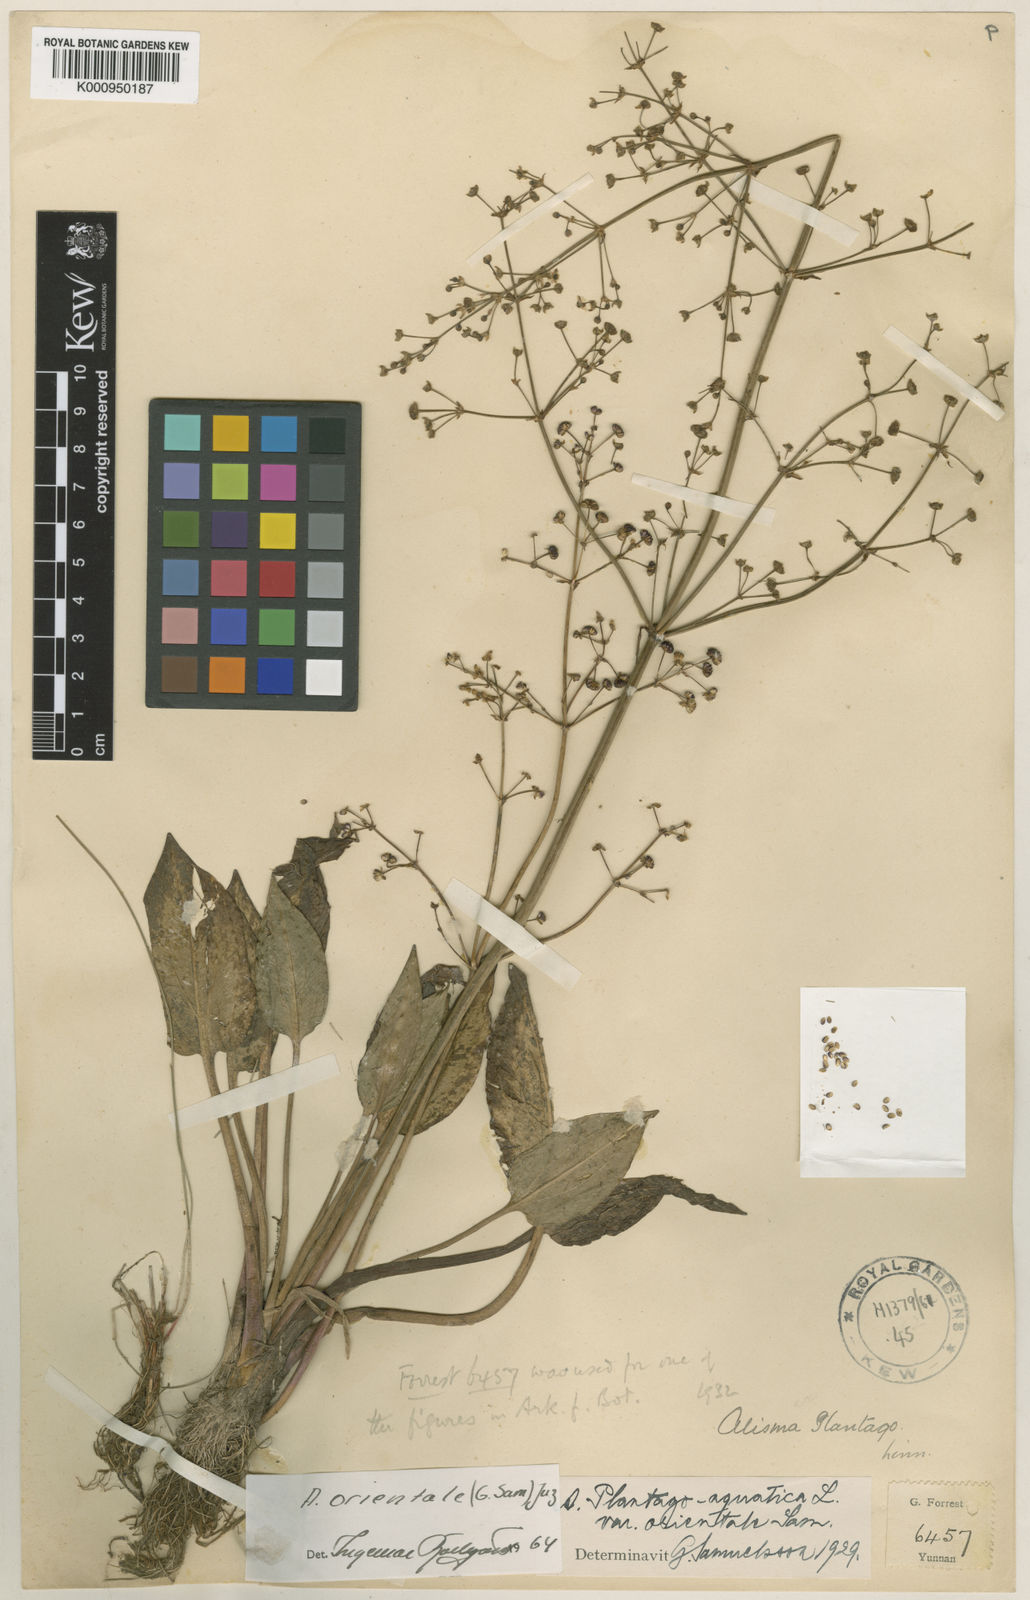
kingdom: Plantae
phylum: Tracheophyta
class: Liliopsida
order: Alismatales
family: Alismataceae
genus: Alisma
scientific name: Alisma plantago-aquatica
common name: Water-plantain
